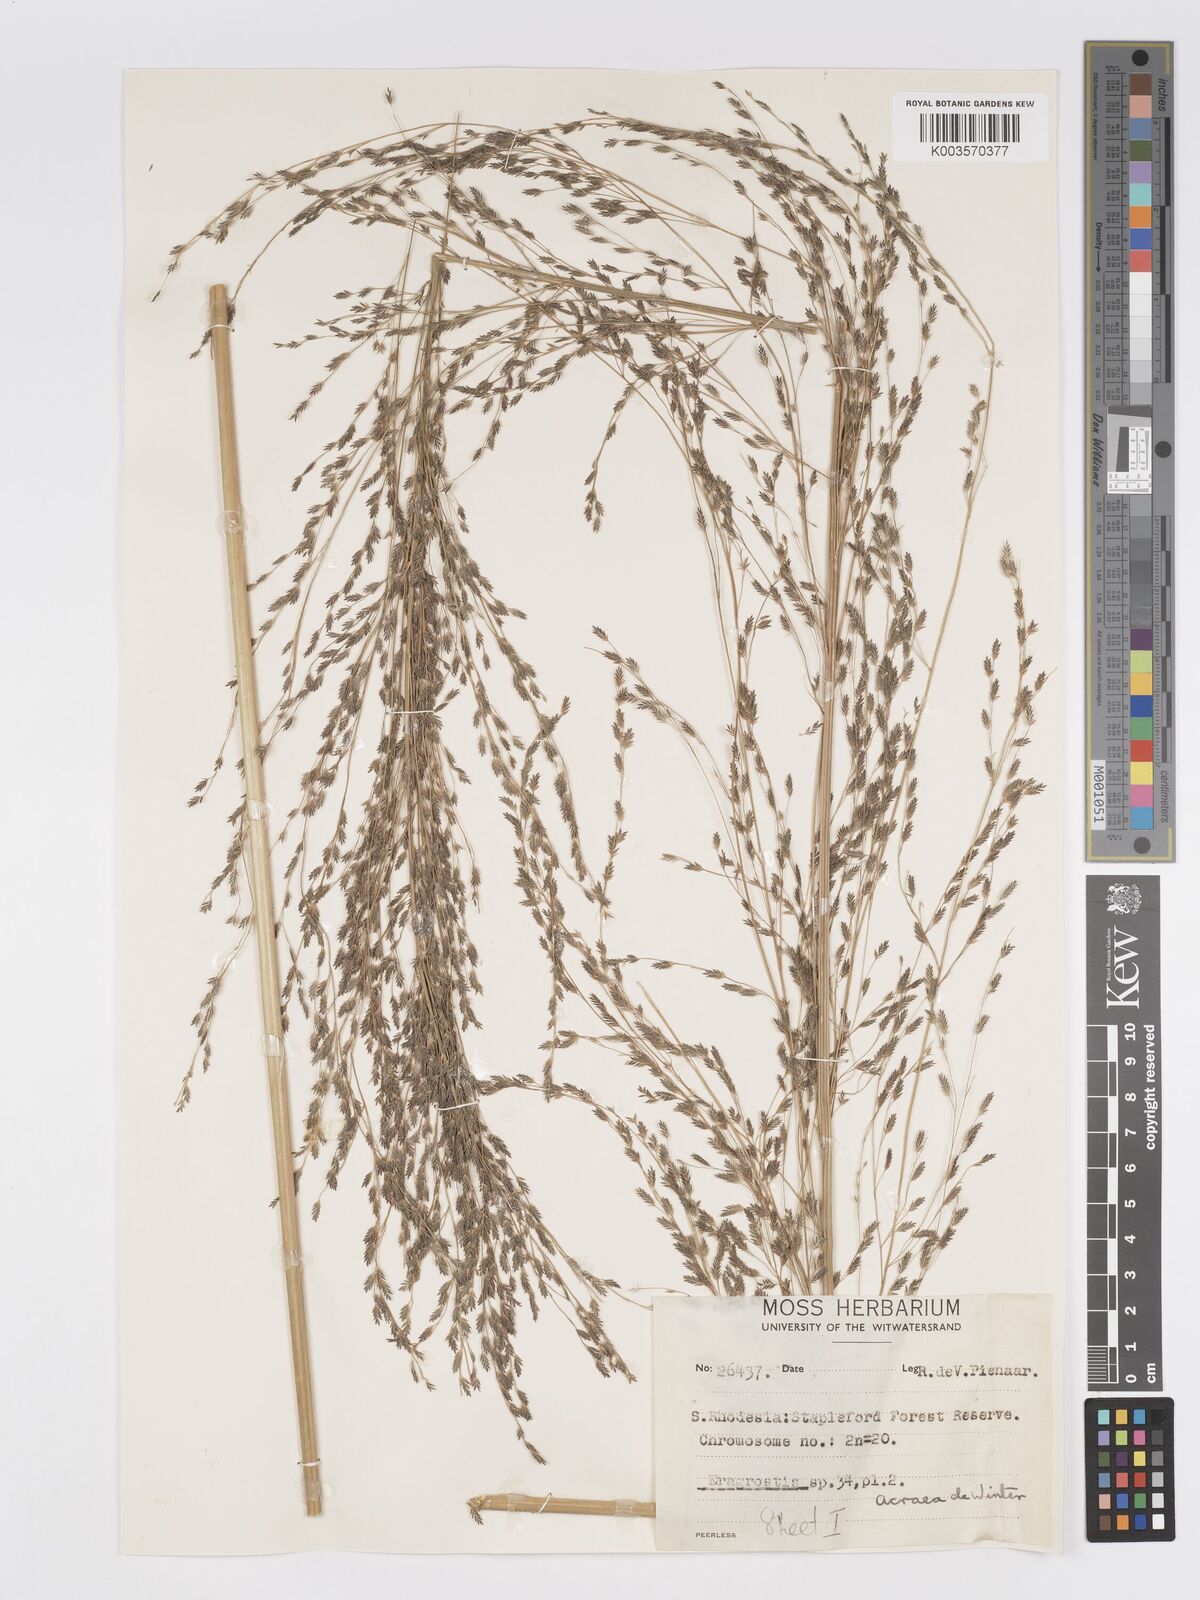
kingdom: Plantae
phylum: Tracheophyta
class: Liliopsida
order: Poales
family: Poaceae
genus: Eragrostis
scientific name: Eragrostis acraea
